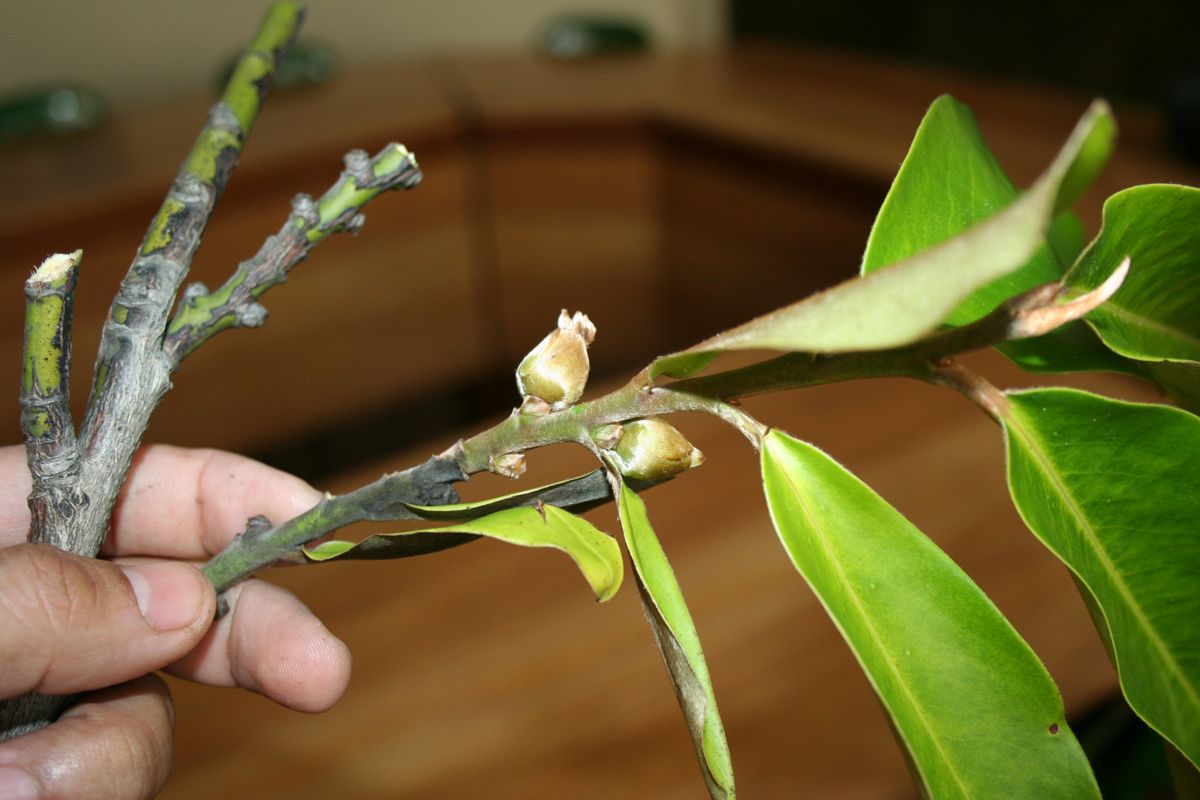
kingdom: Plantae
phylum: Tracheophyta
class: Magnoliopsida
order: Ericales
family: Ebenaceae
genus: Diospyros
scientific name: Diospyros blancoi
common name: Mabola-tree
